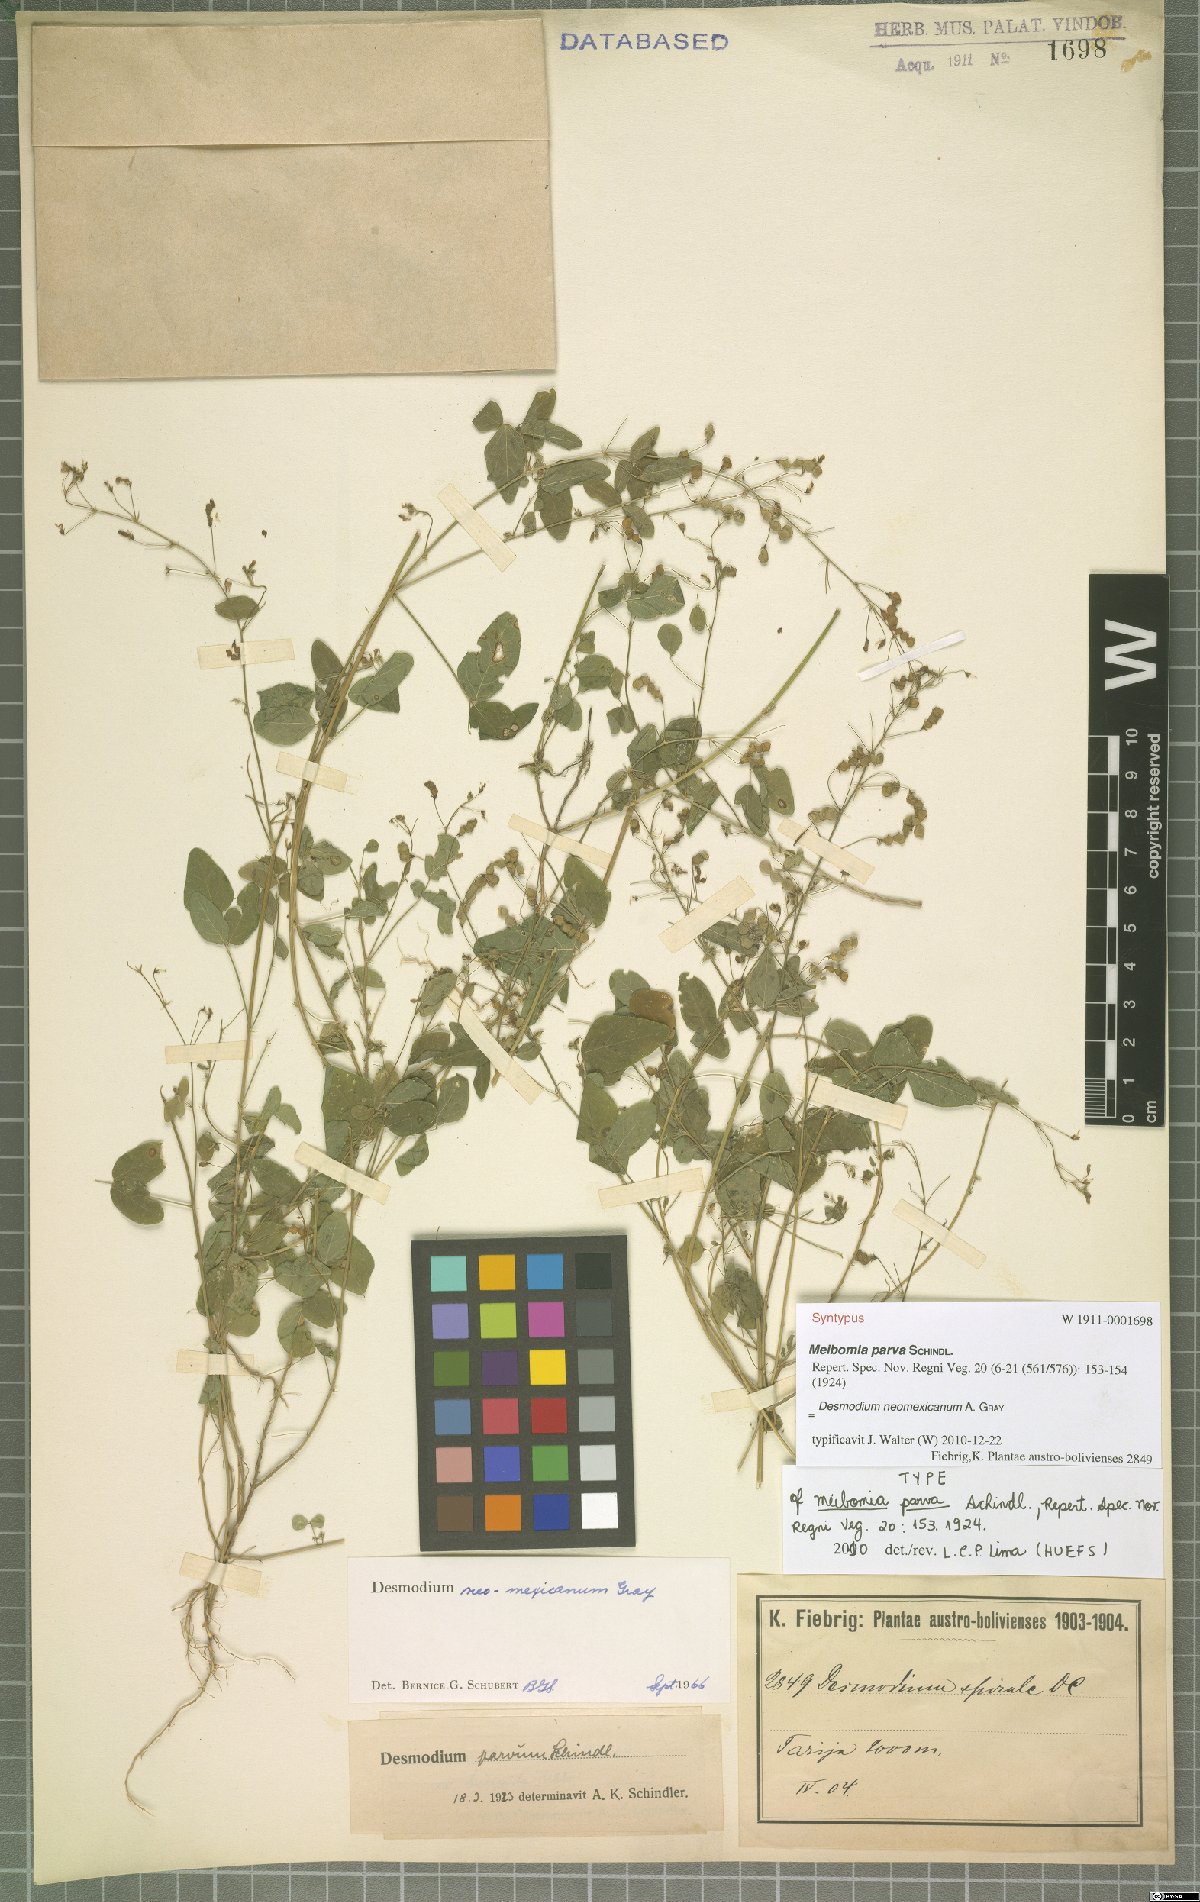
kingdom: Plantae
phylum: Tracheophyta
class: Magnoliopsida
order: Fabales
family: Fabaceae
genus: Desmodium
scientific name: Desmodium procumbens
